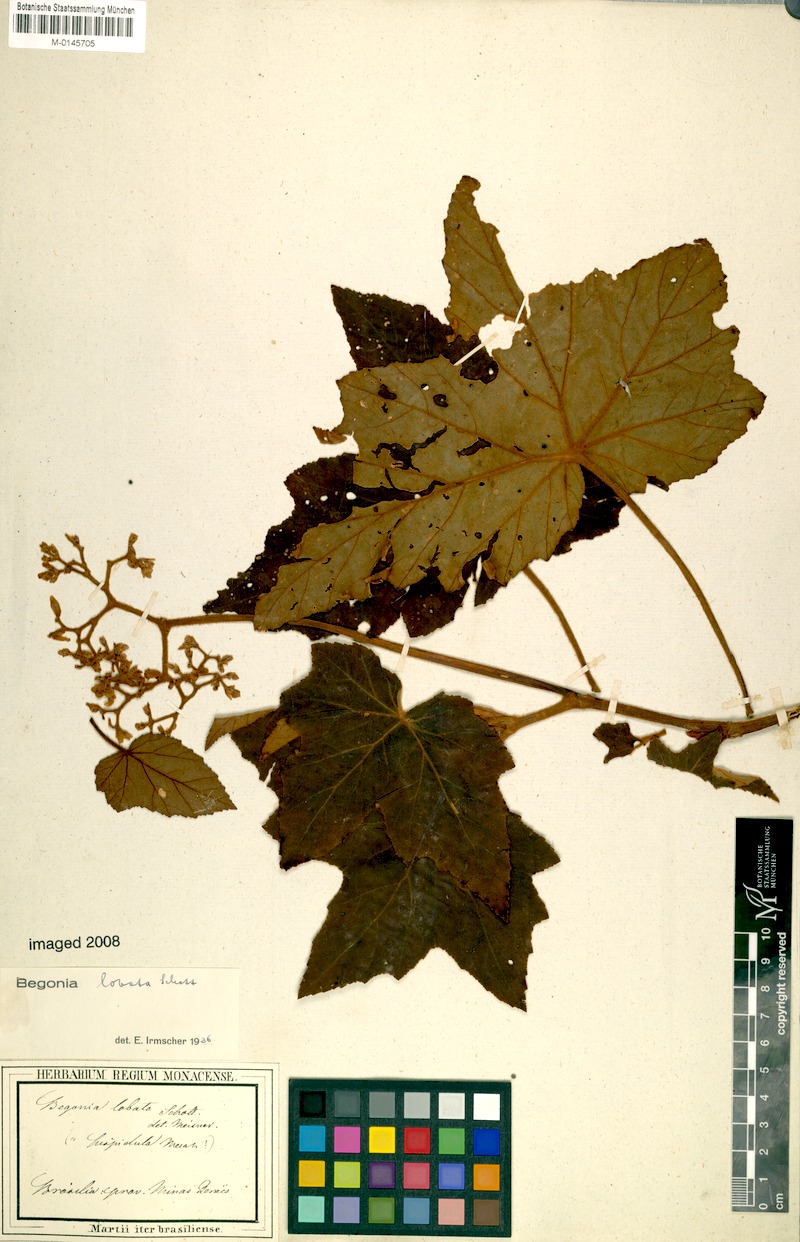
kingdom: Plantae
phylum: Tracheophyta
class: Magnoliopsida
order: Cucurbitales
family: Begoniaceae
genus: Begonia
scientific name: Begonia rufa
